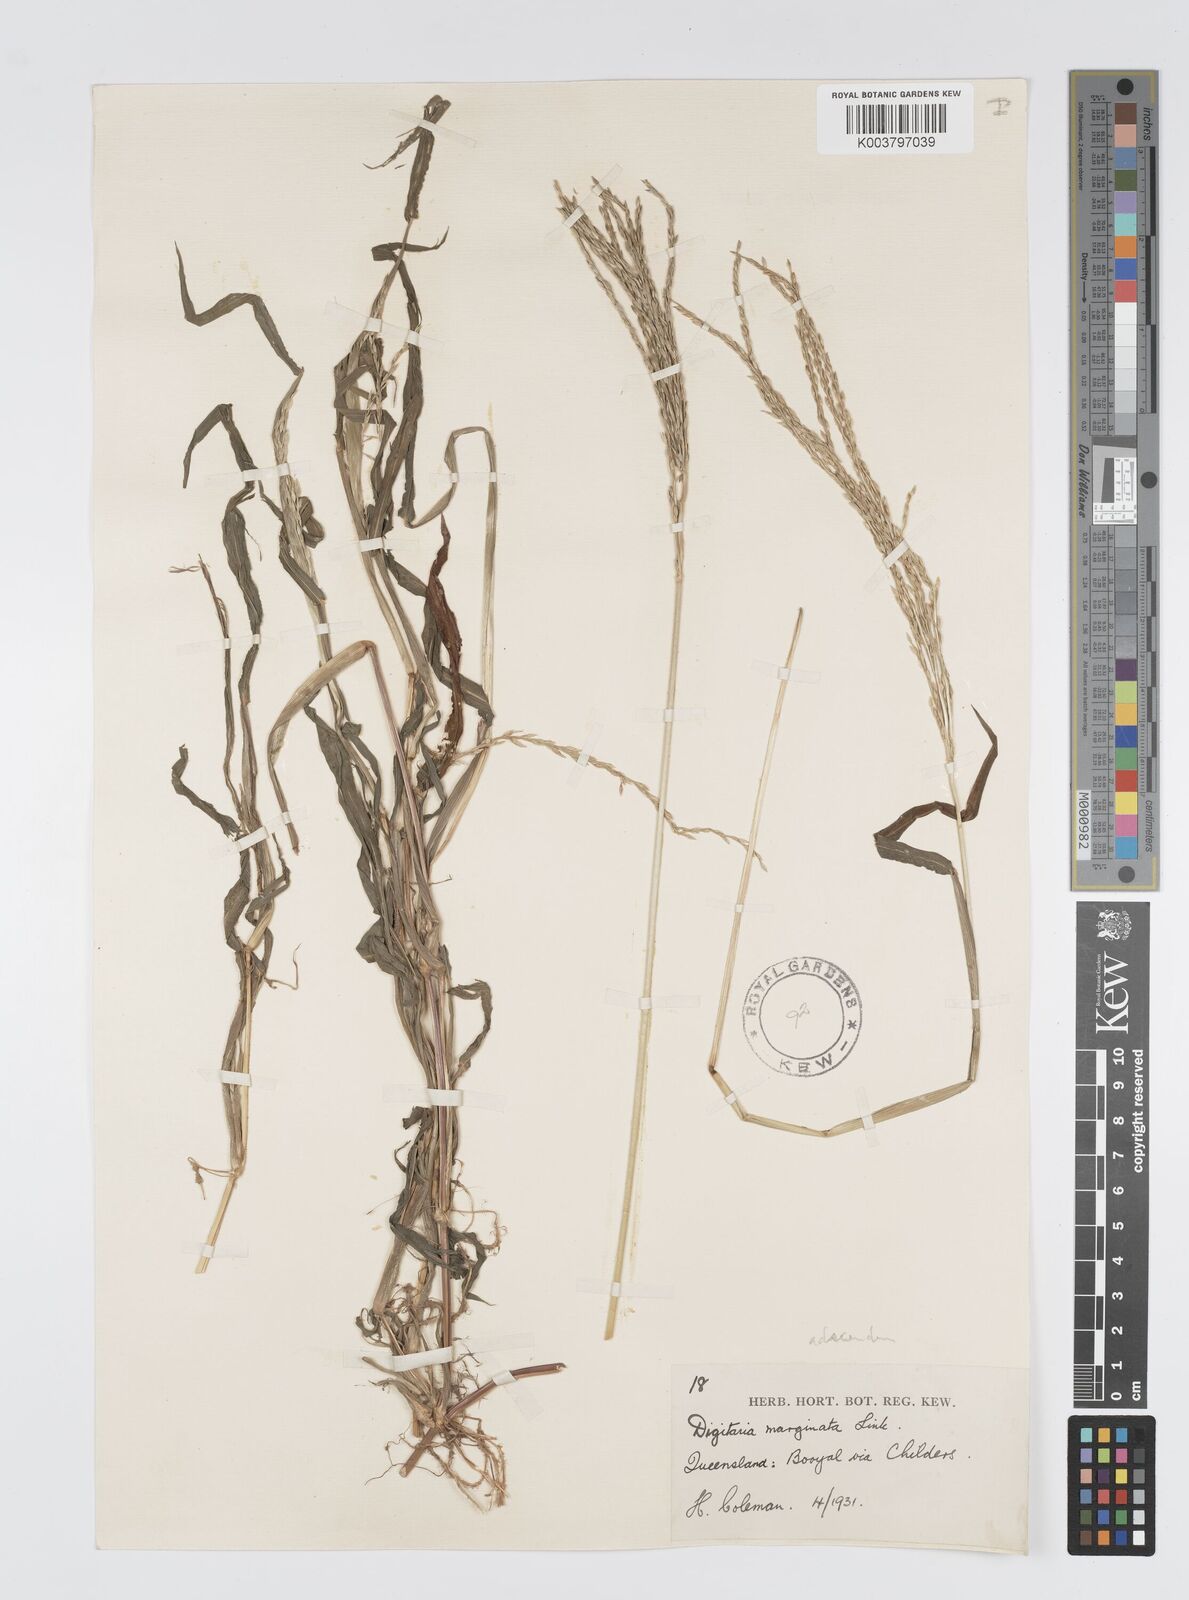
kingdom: Plantae
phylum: Tracheophyta
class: Liliopsida
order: Poales
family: Poaceae
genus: Digitaria
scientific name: Digitaria ciliaris
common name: Tropical finger-grass
